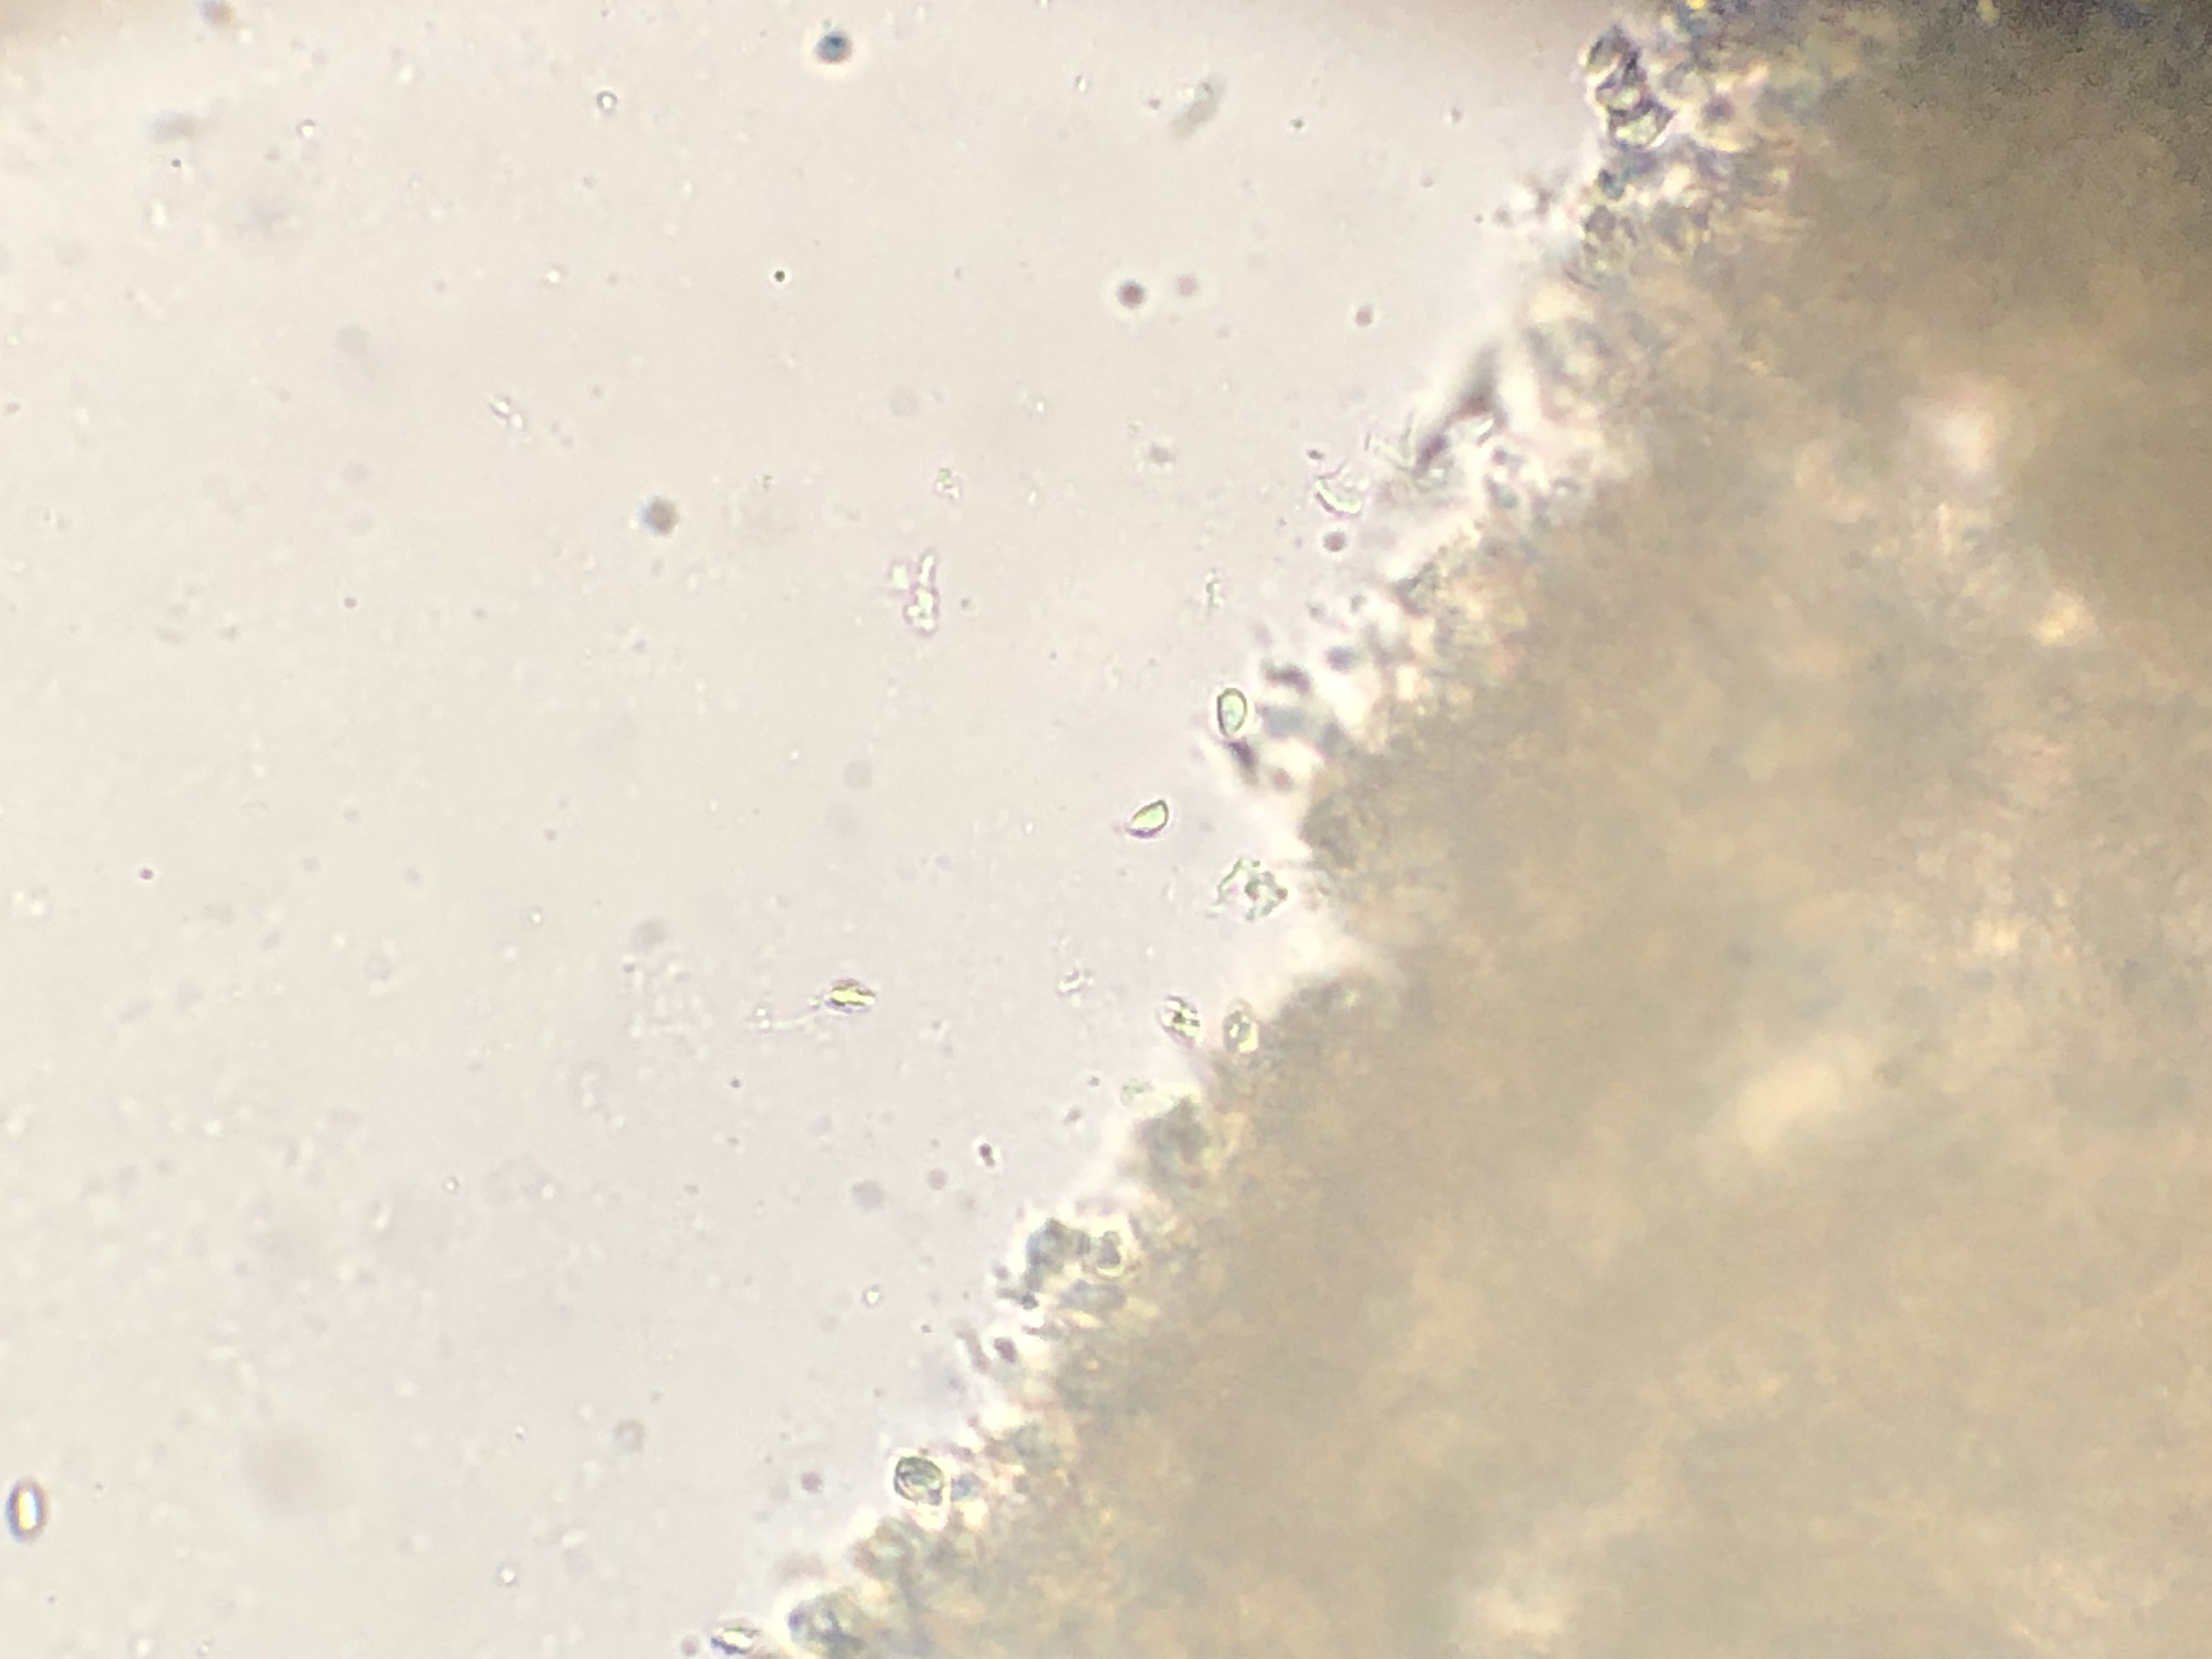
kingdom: Fungi
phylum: Basidiomycota
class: Agaricomycetes
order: Agaricales
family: Clavariaceae
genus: Clavulinopsis
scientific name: Clavulinopsis luteoalba
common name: abrikos-køllesvamp
